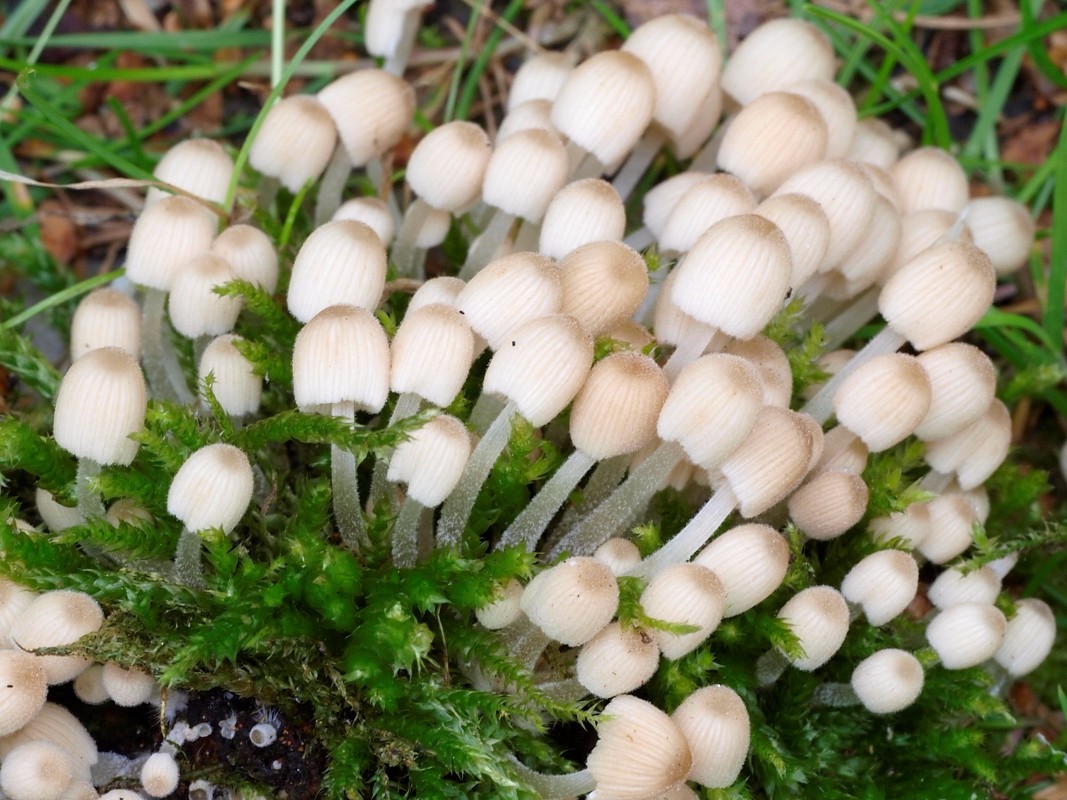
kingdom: Fungi
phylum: Basidiomycota
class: Agaricomycetes
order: Agaricales
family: Psathyrellaceae
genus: Coprinellus
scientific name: Coprinellus disseminatus
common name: bredsået blækhat
